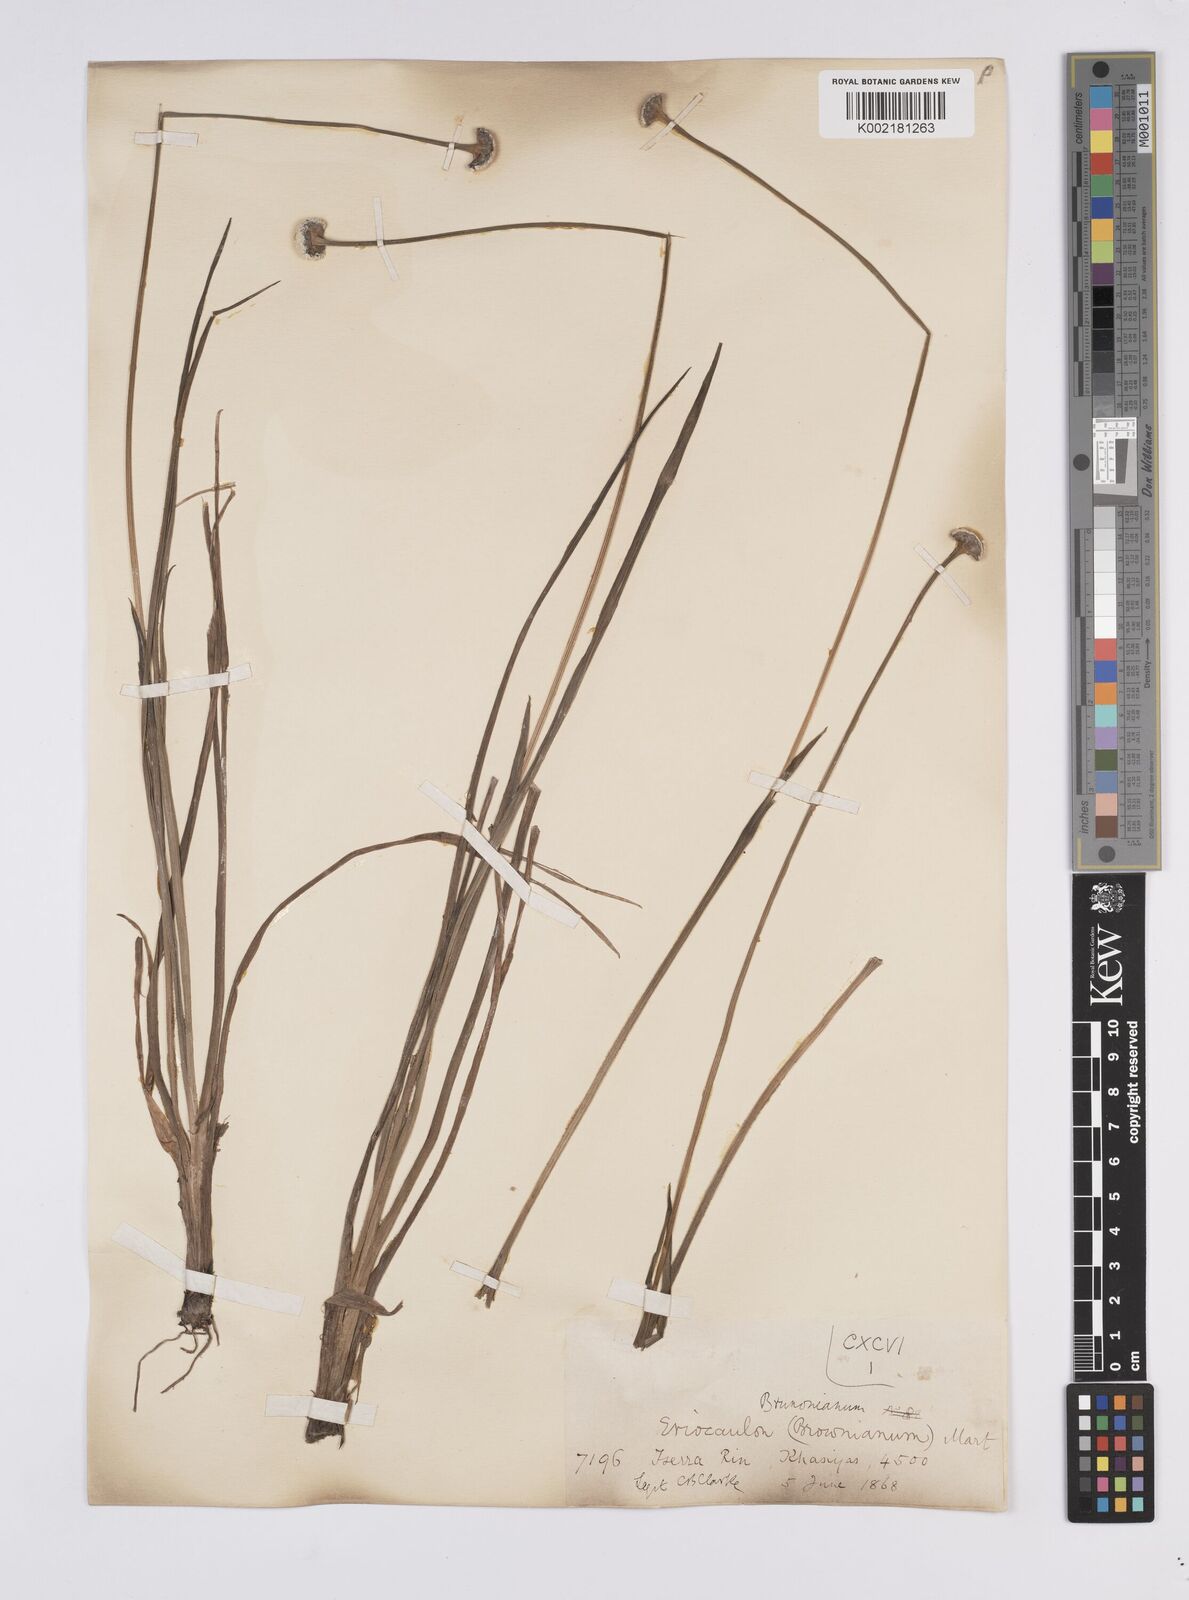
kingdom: Plantae
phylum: Tracheophyta
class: Liliopsida
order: Poales
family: Eriocaulaceae
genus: Eriocaulon
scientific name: Eriocaulon brownianum
